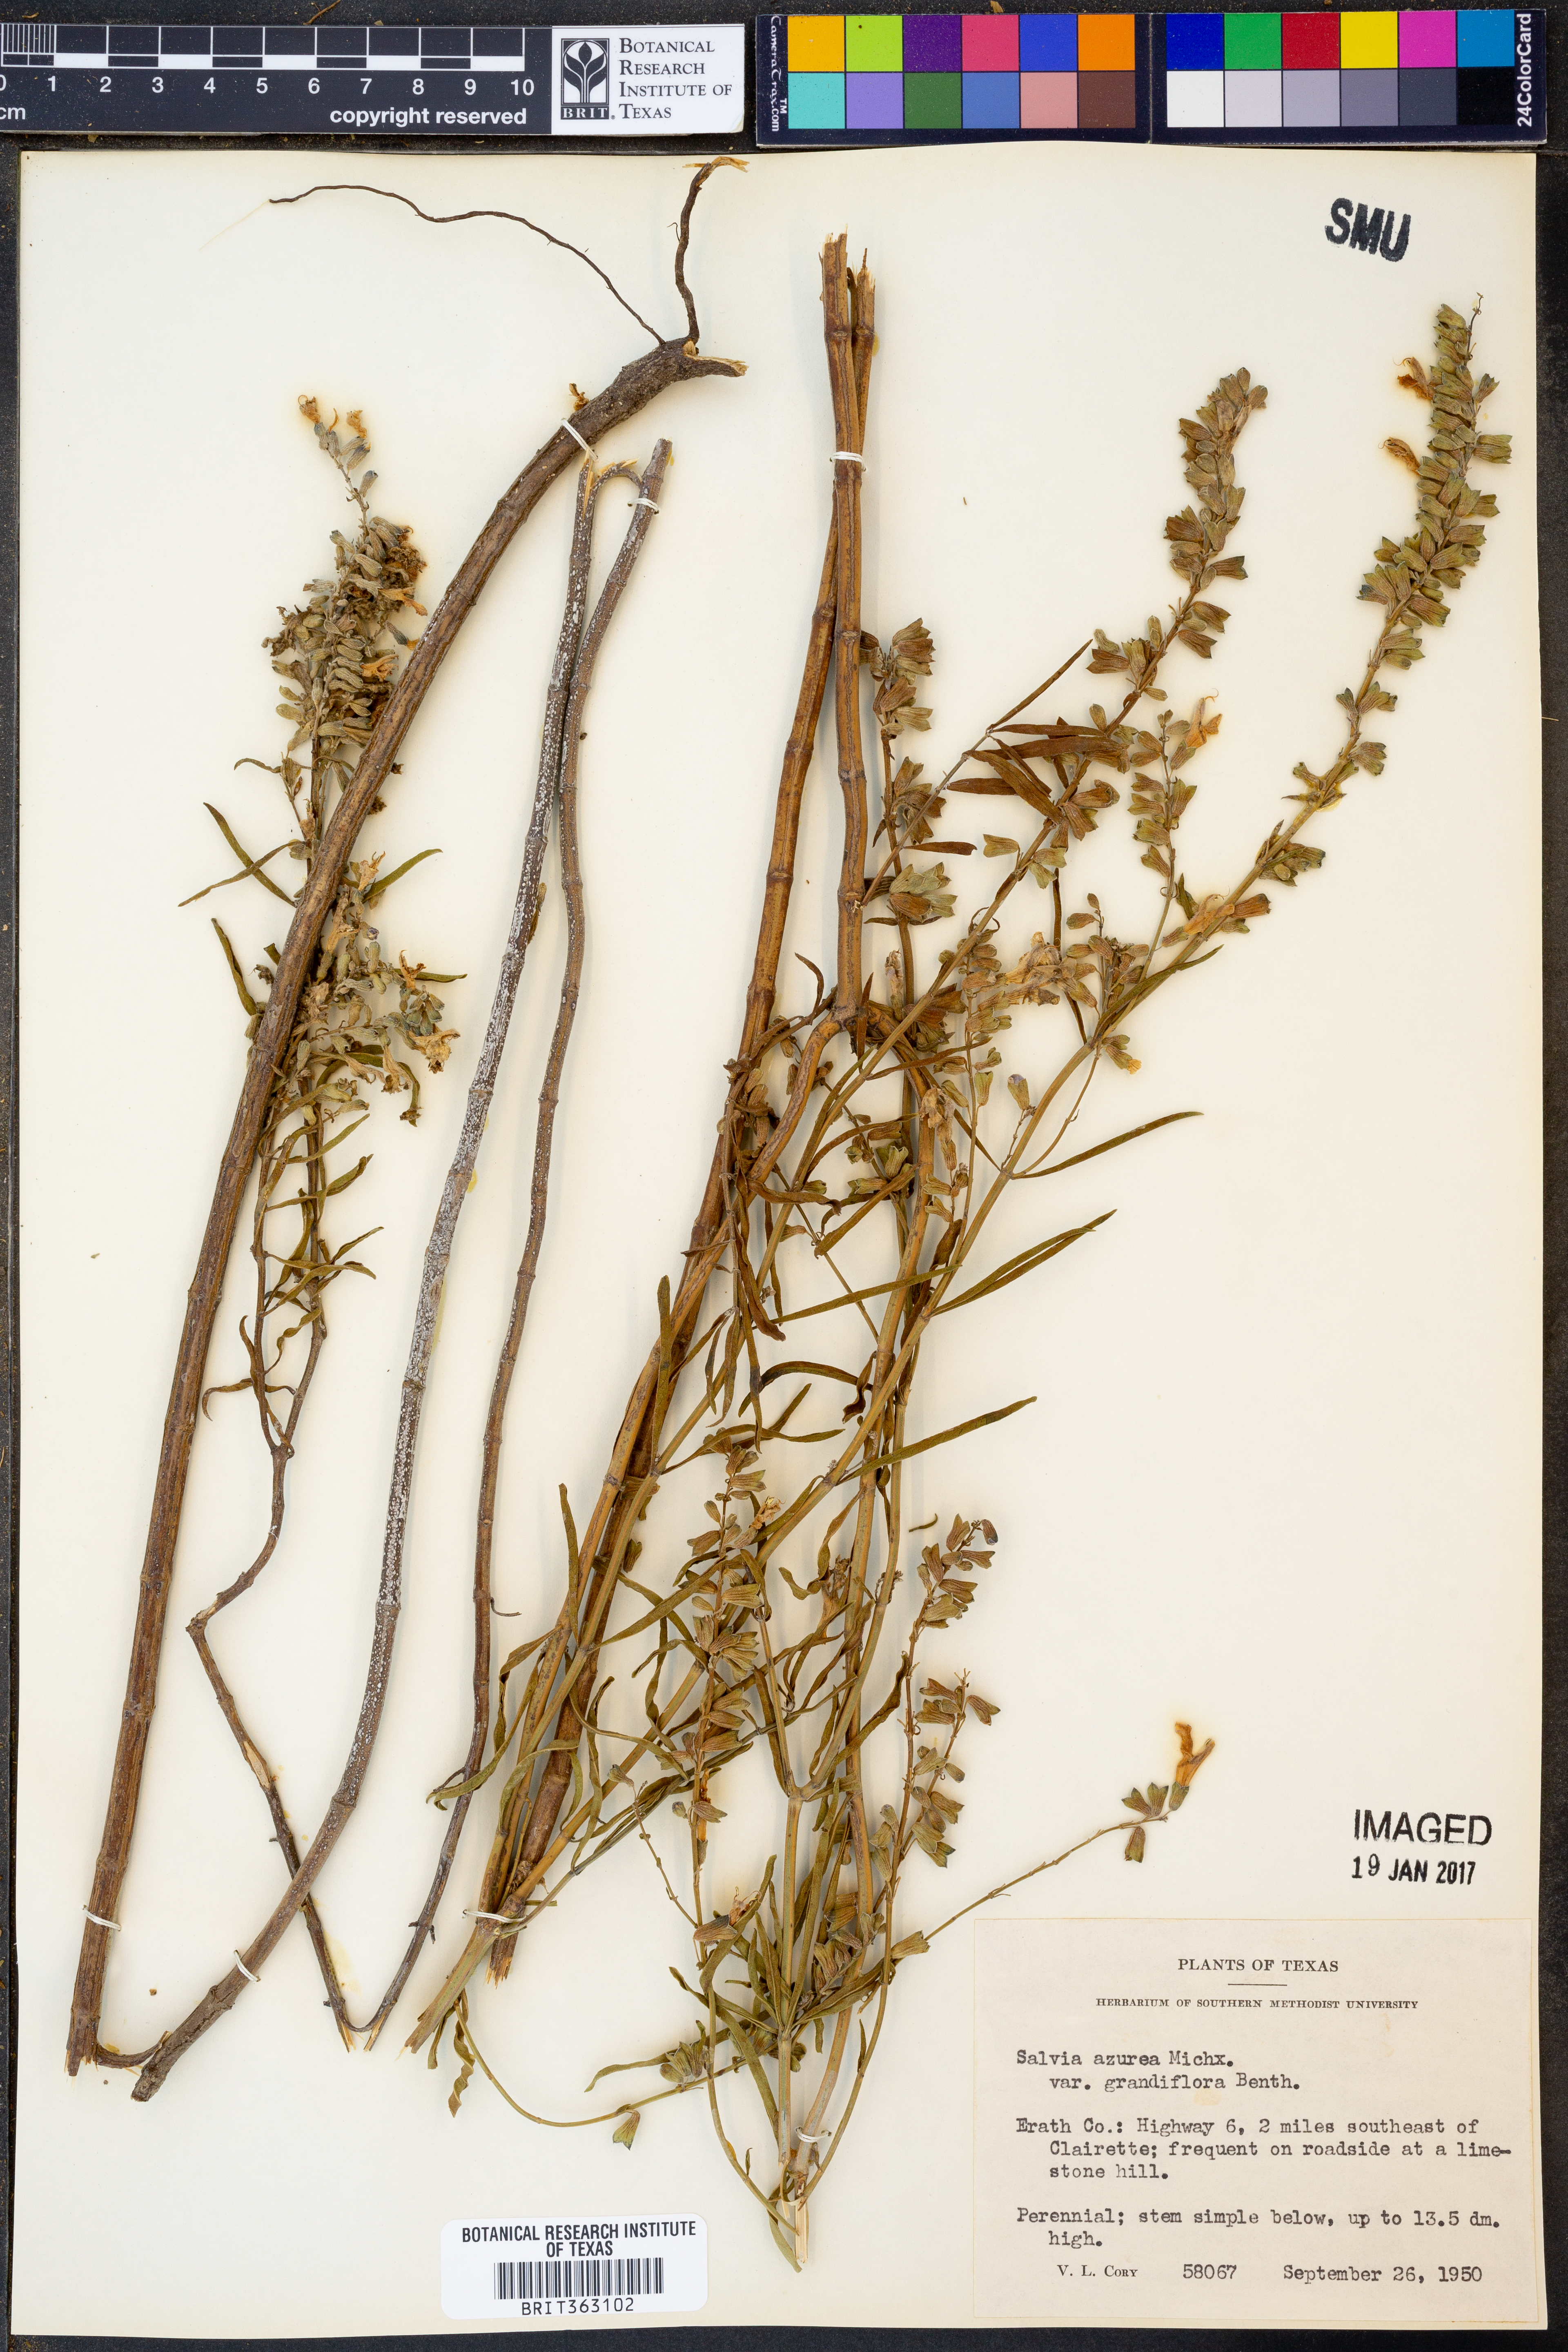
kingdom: Plantae
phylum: Tracheophyta
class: Magnoliopsida
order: Lamiales
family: Lamiaceae
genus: Salvia
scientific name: Salvia azurea
